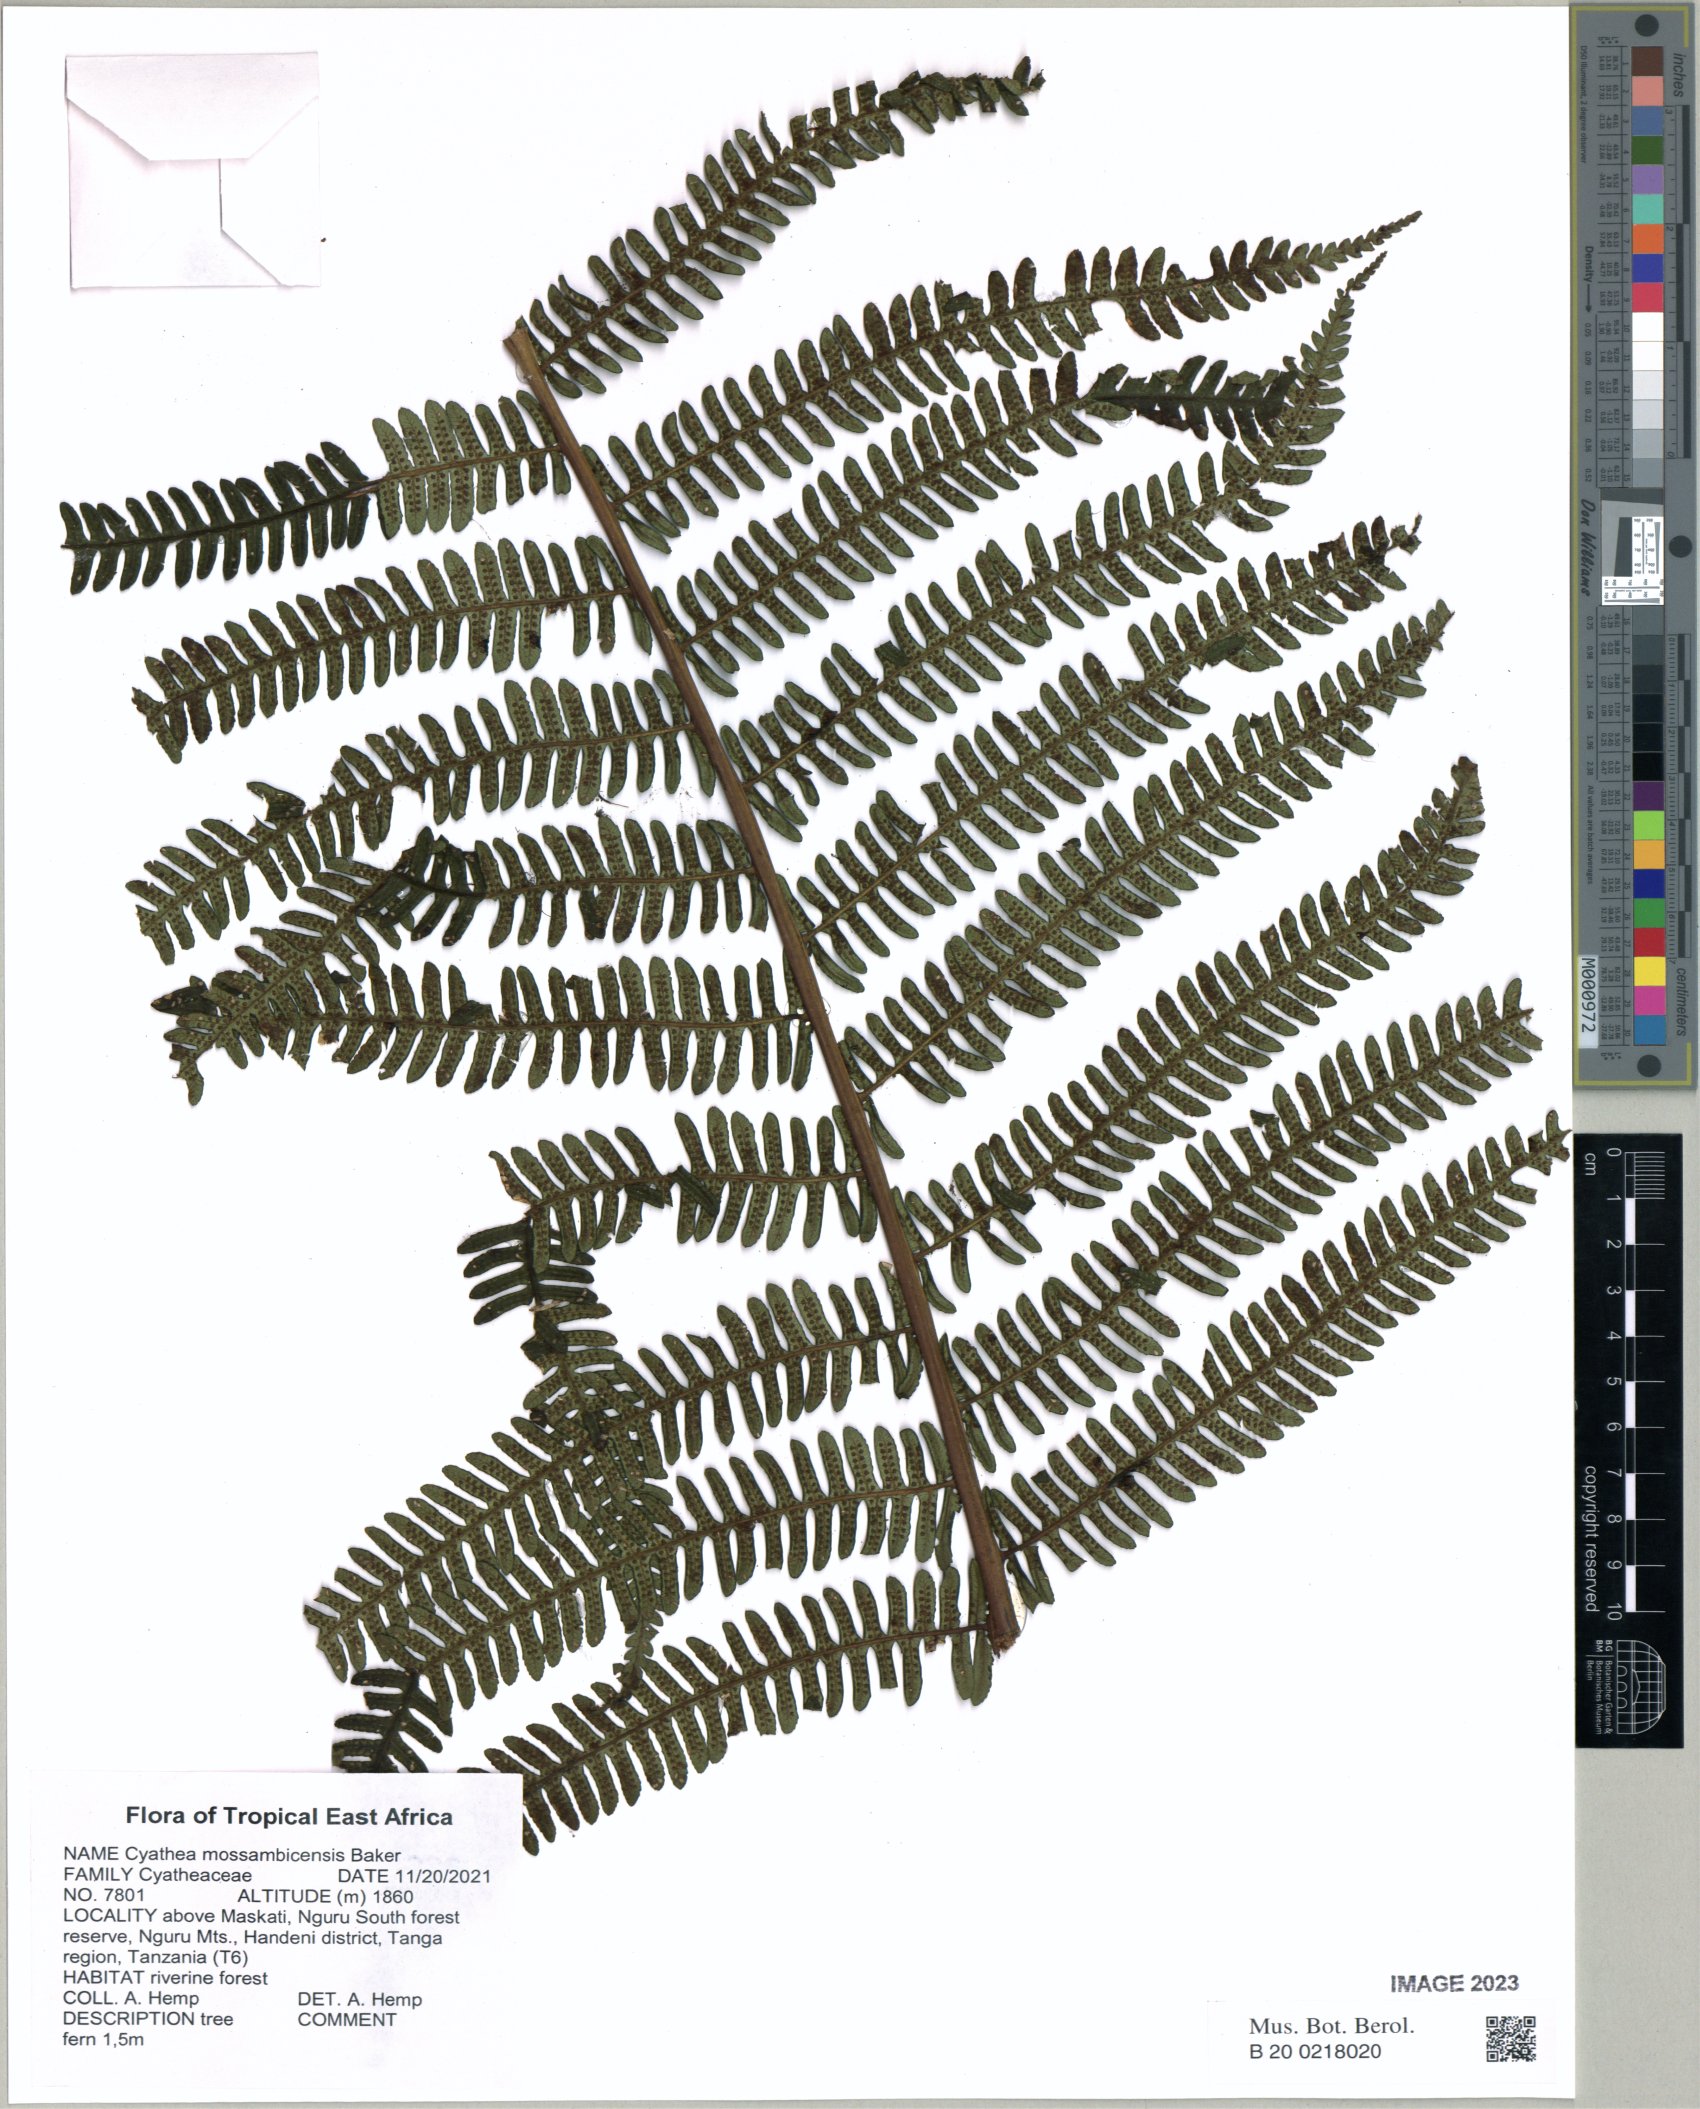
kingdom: Plantae
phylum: Tracheophyta
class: Polypodiopsida
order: Cyatheales
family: Cyatheaceae
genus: Alsophila
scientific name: Alsophila mossambicensis
